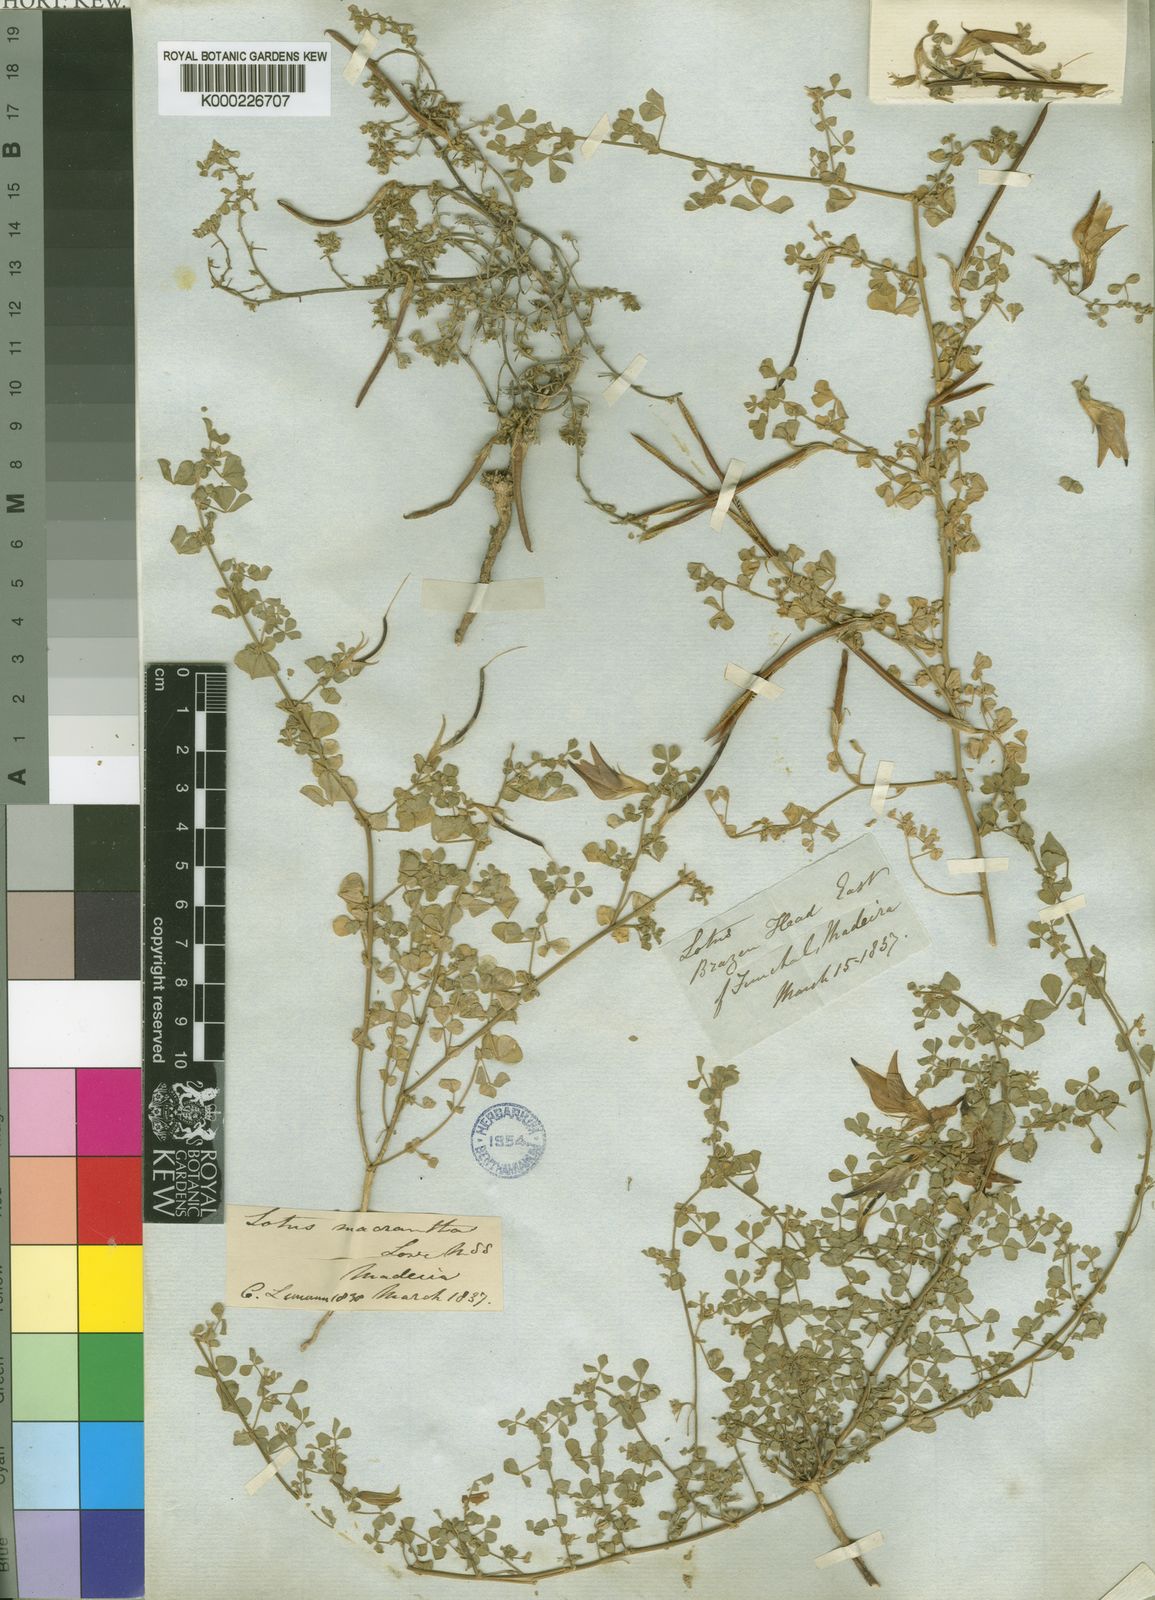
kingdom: Plantae
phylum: Tracheophyta
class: Magnoliopsida
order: Fabales
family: Fabaceae
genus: Lotus
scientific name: Lotus macranthus
